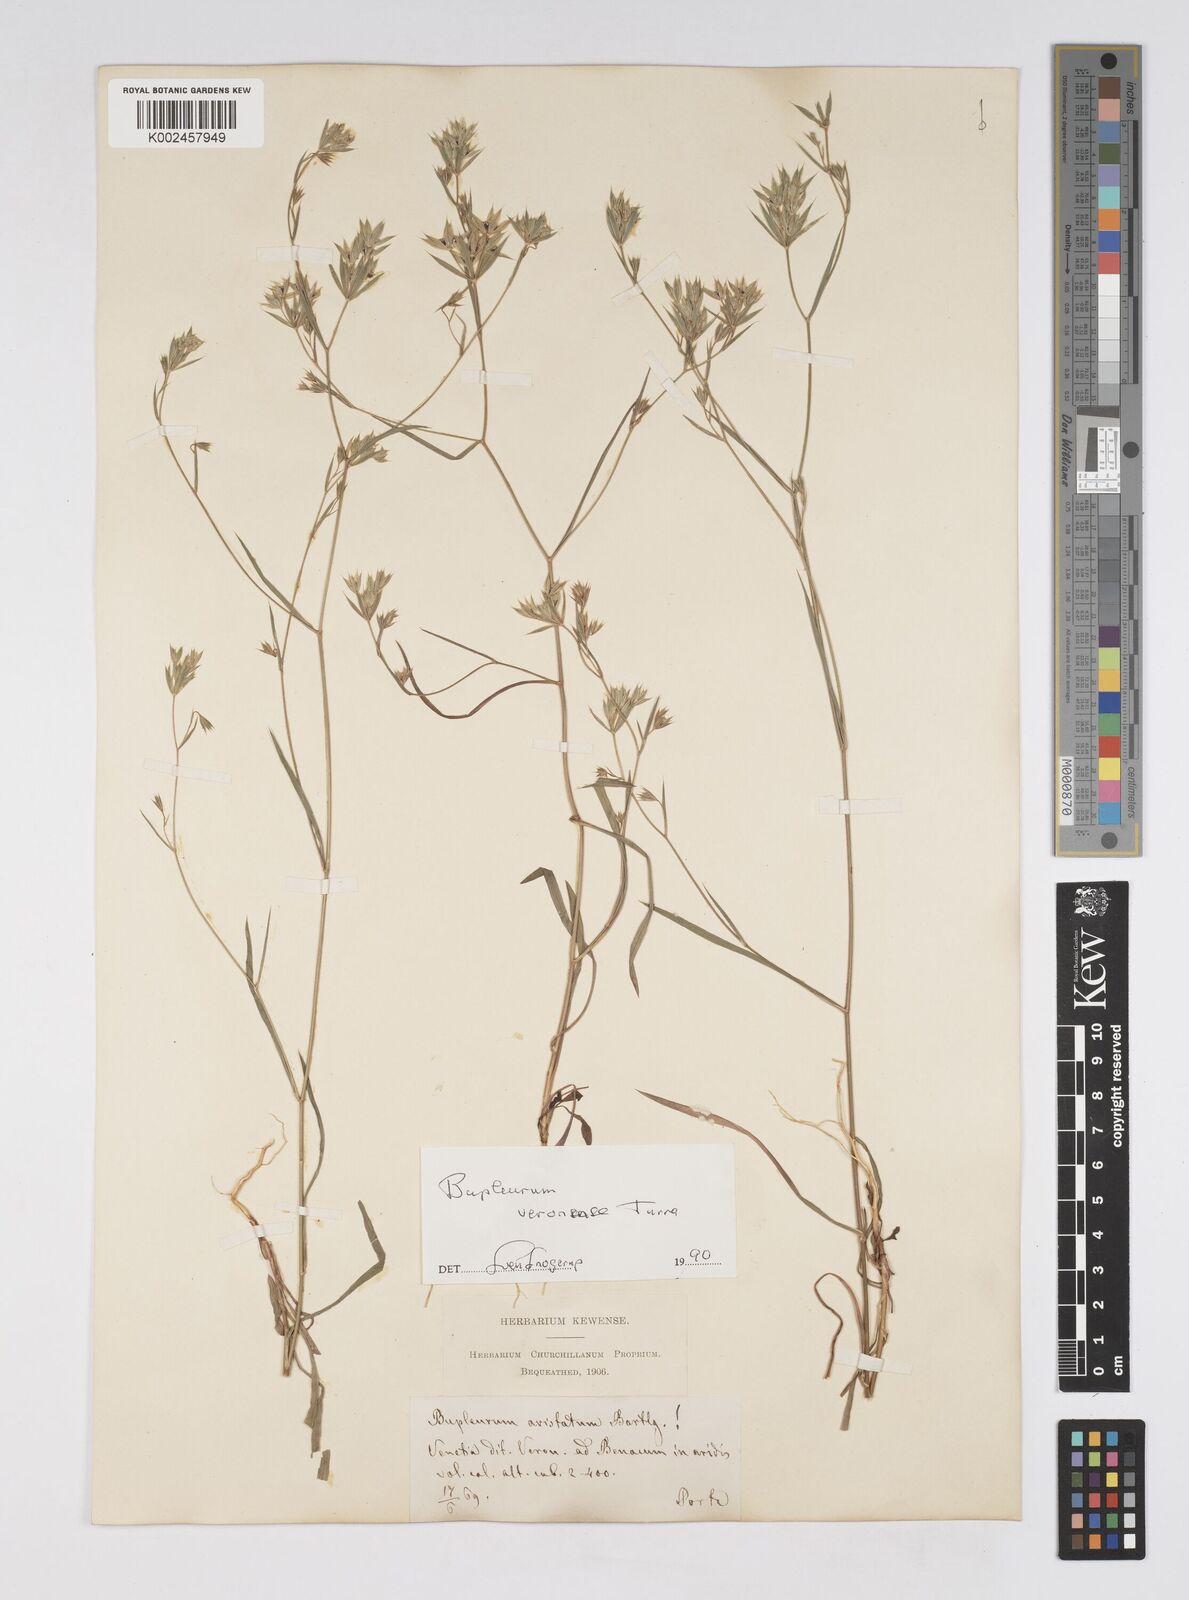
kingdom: Plantae
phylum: Tracheophyta
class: Magnoliopsida
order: Apiales
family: Apiaceae
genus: Bupleurum
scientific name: Bupleurum glumaceum
